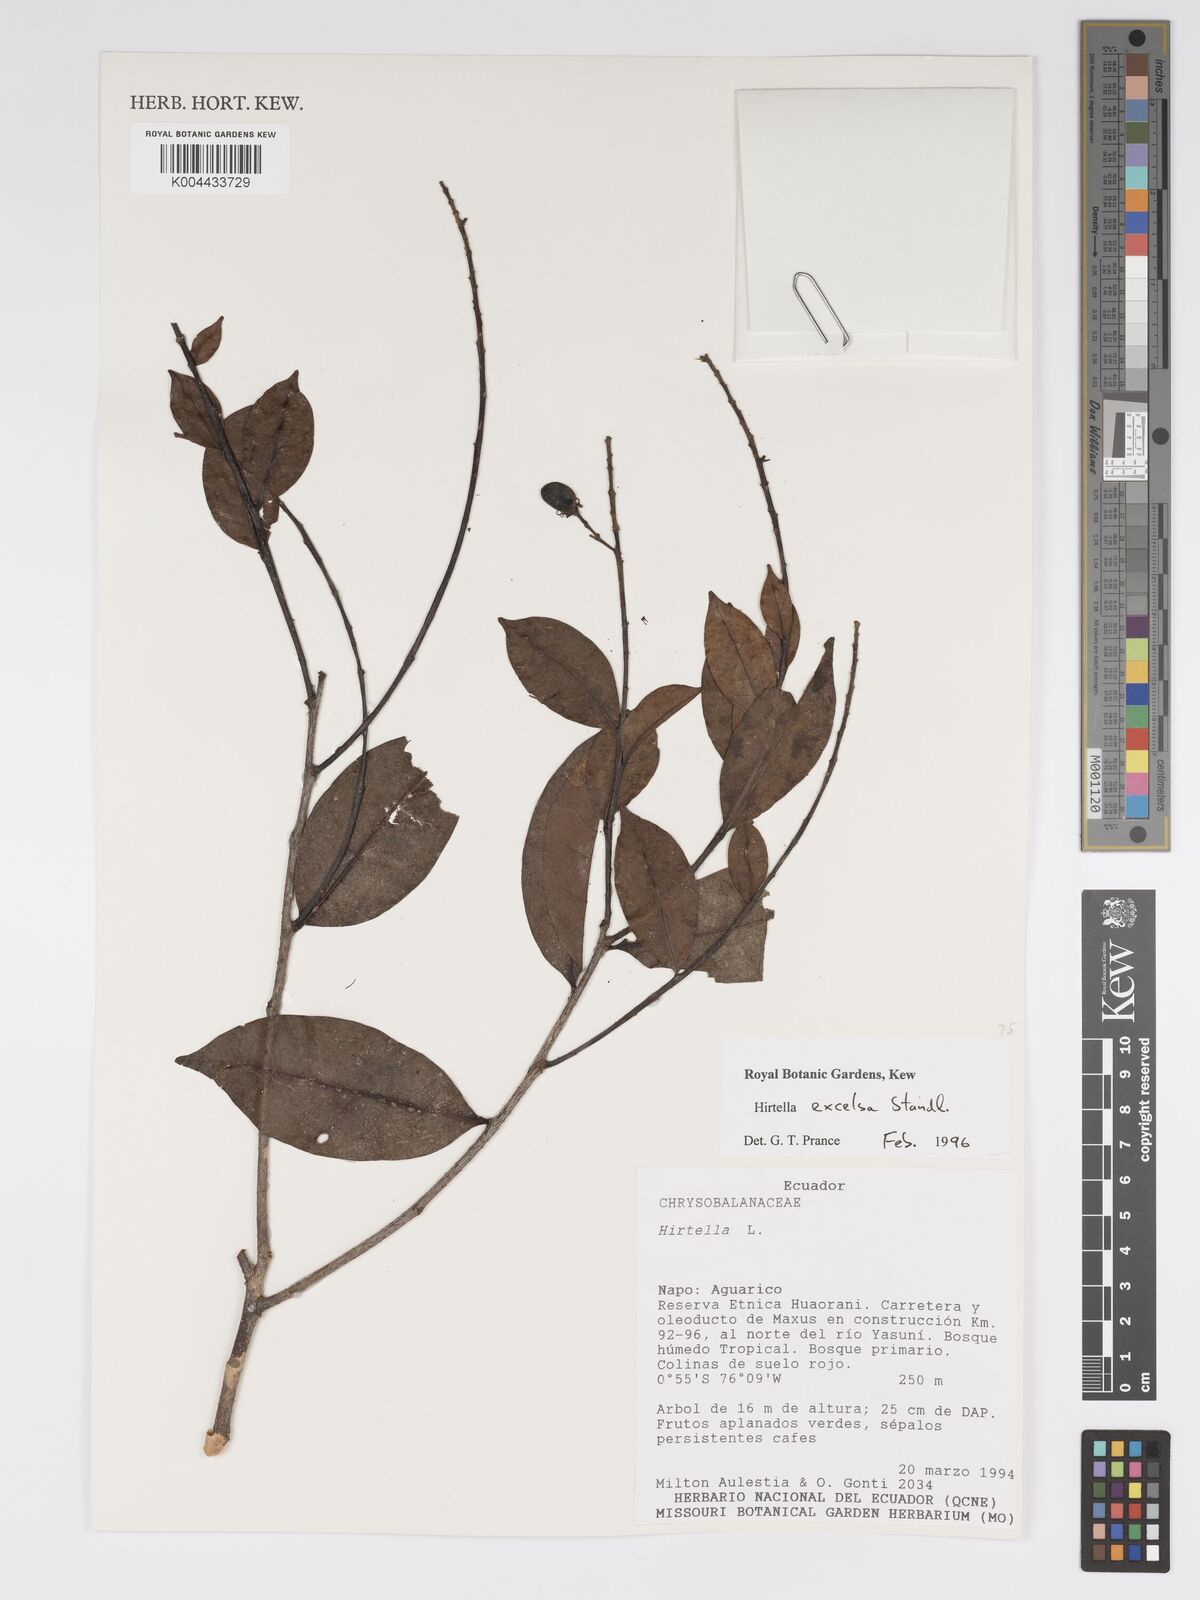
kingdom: Plantae
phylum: Tracheophyta
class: Magnoliopsida
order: Malpighiales
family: Chrysobalanaceae
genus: Hirtella
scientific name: Hirtella excelsa
